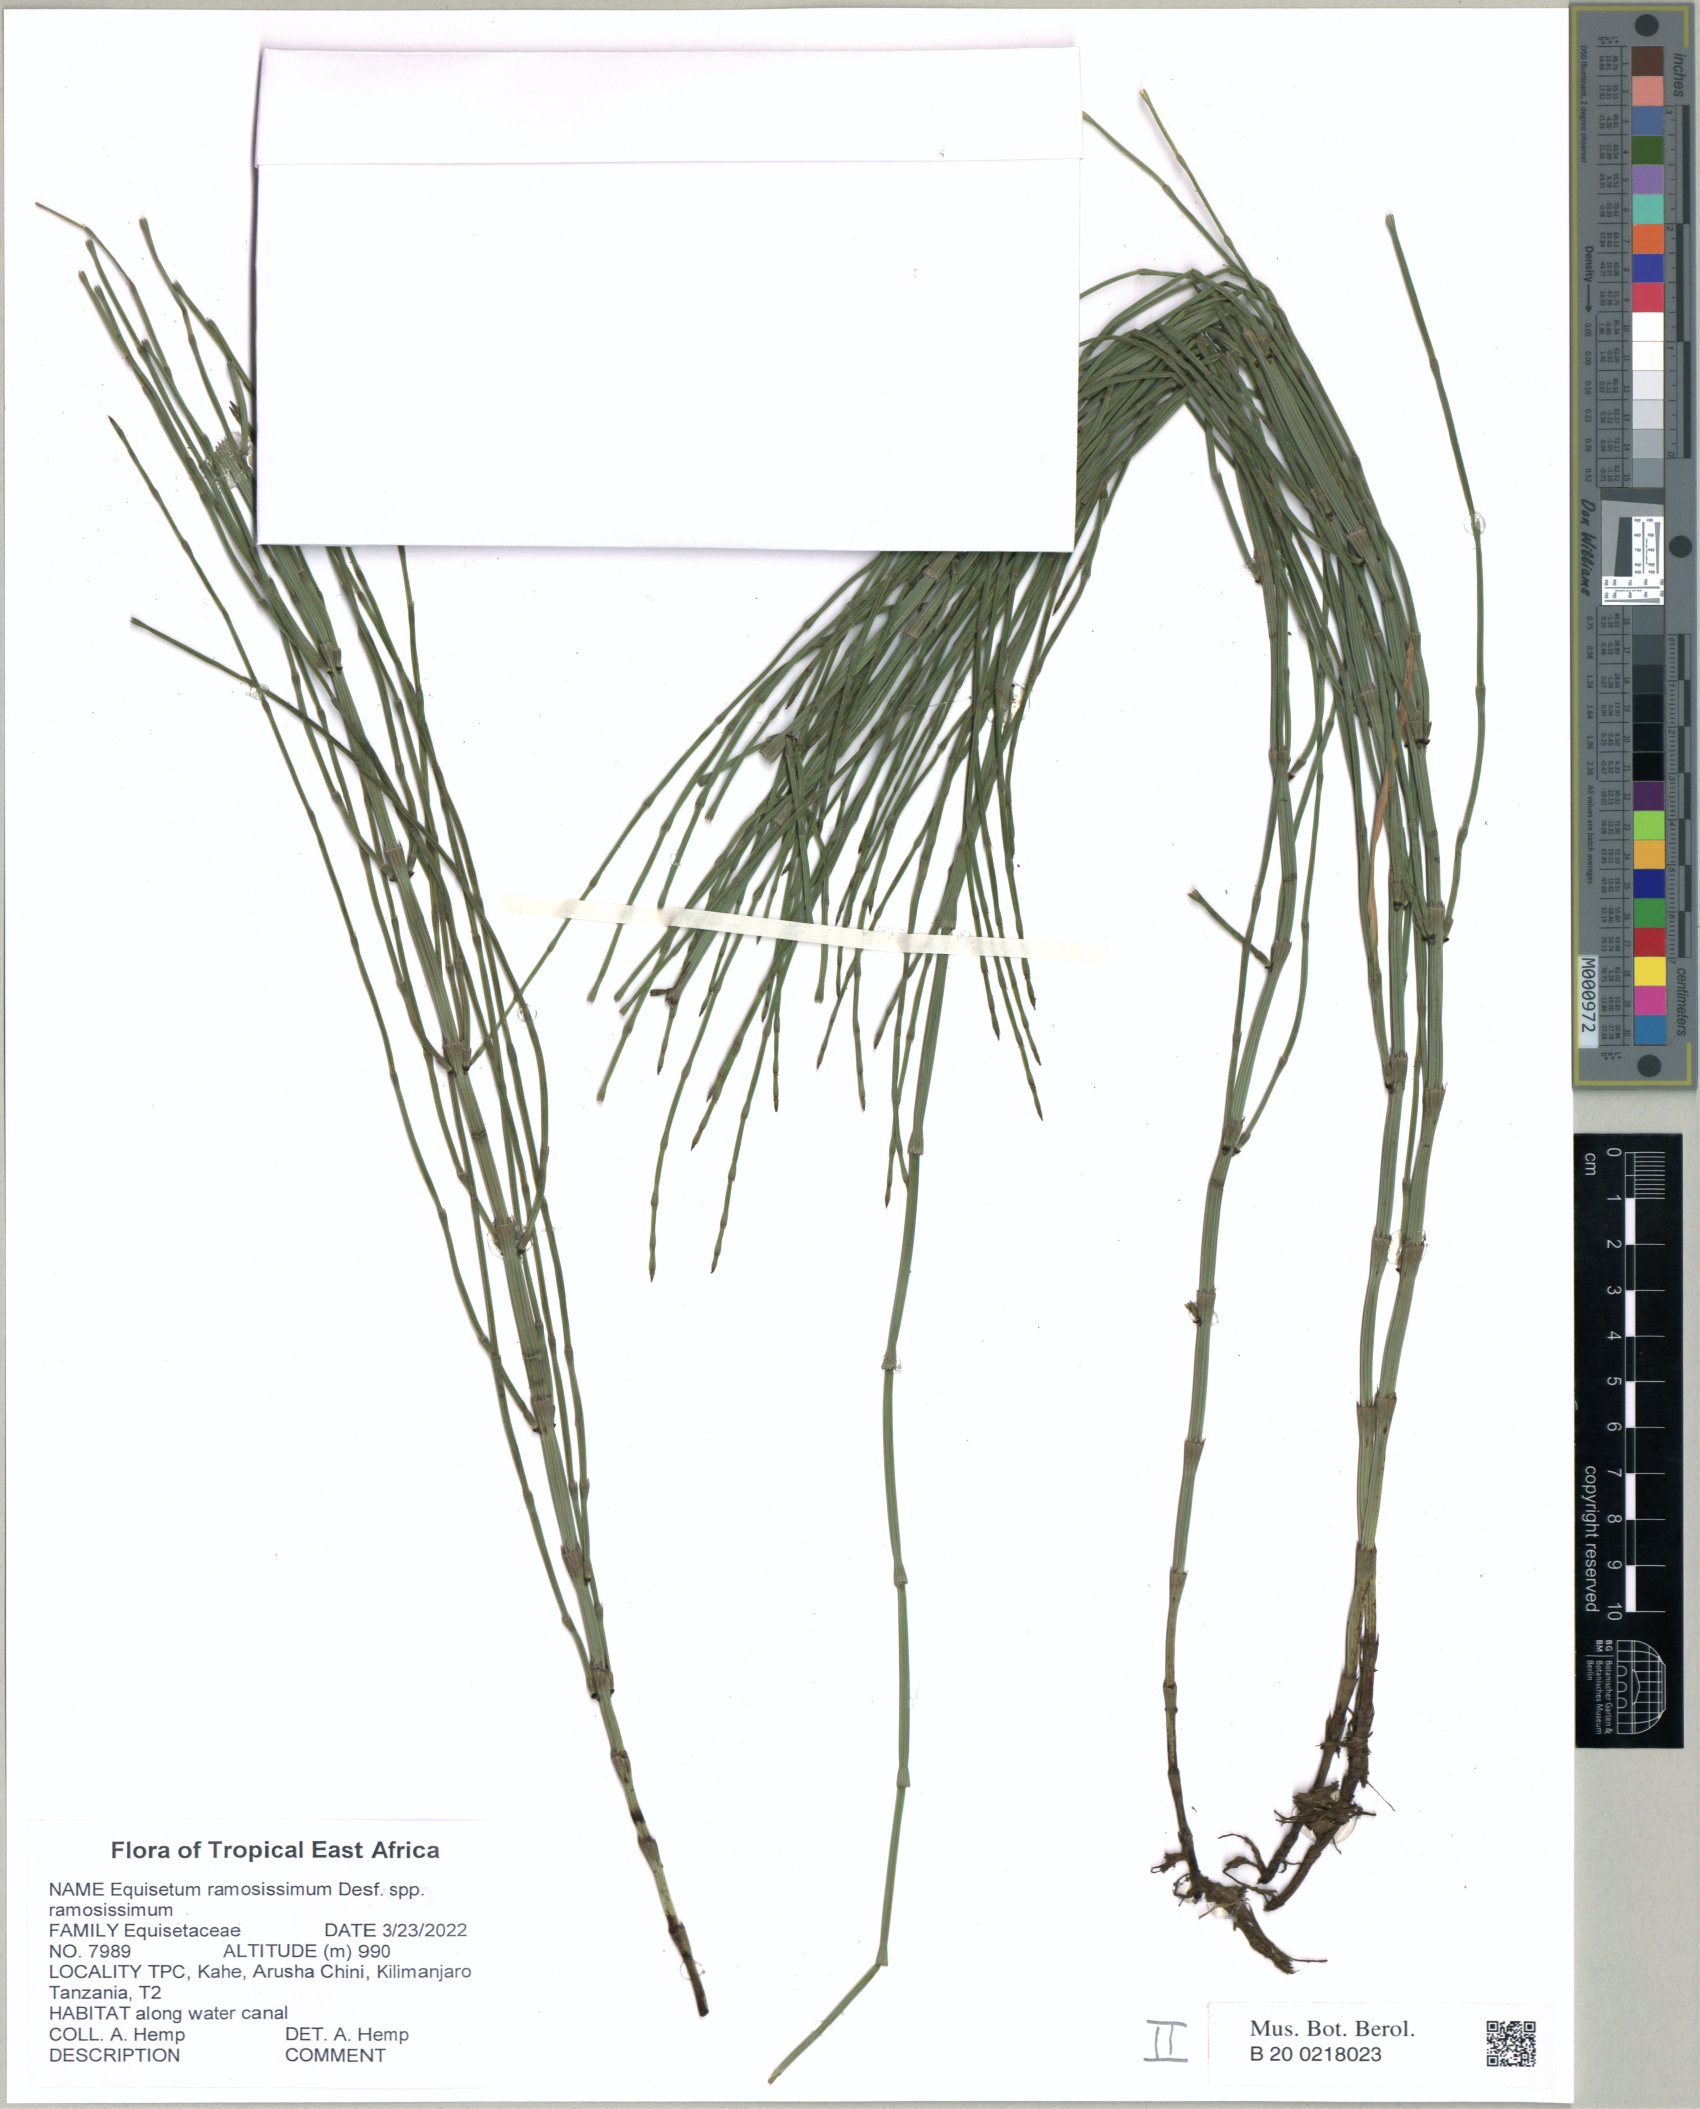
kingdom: Plantae
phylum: Tracheophyta
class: Polypodiopsida
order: Equisetales
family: Equisetaceae
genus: Equisetum
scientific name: Equisetum ramosissimum
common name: Branched horsetail
